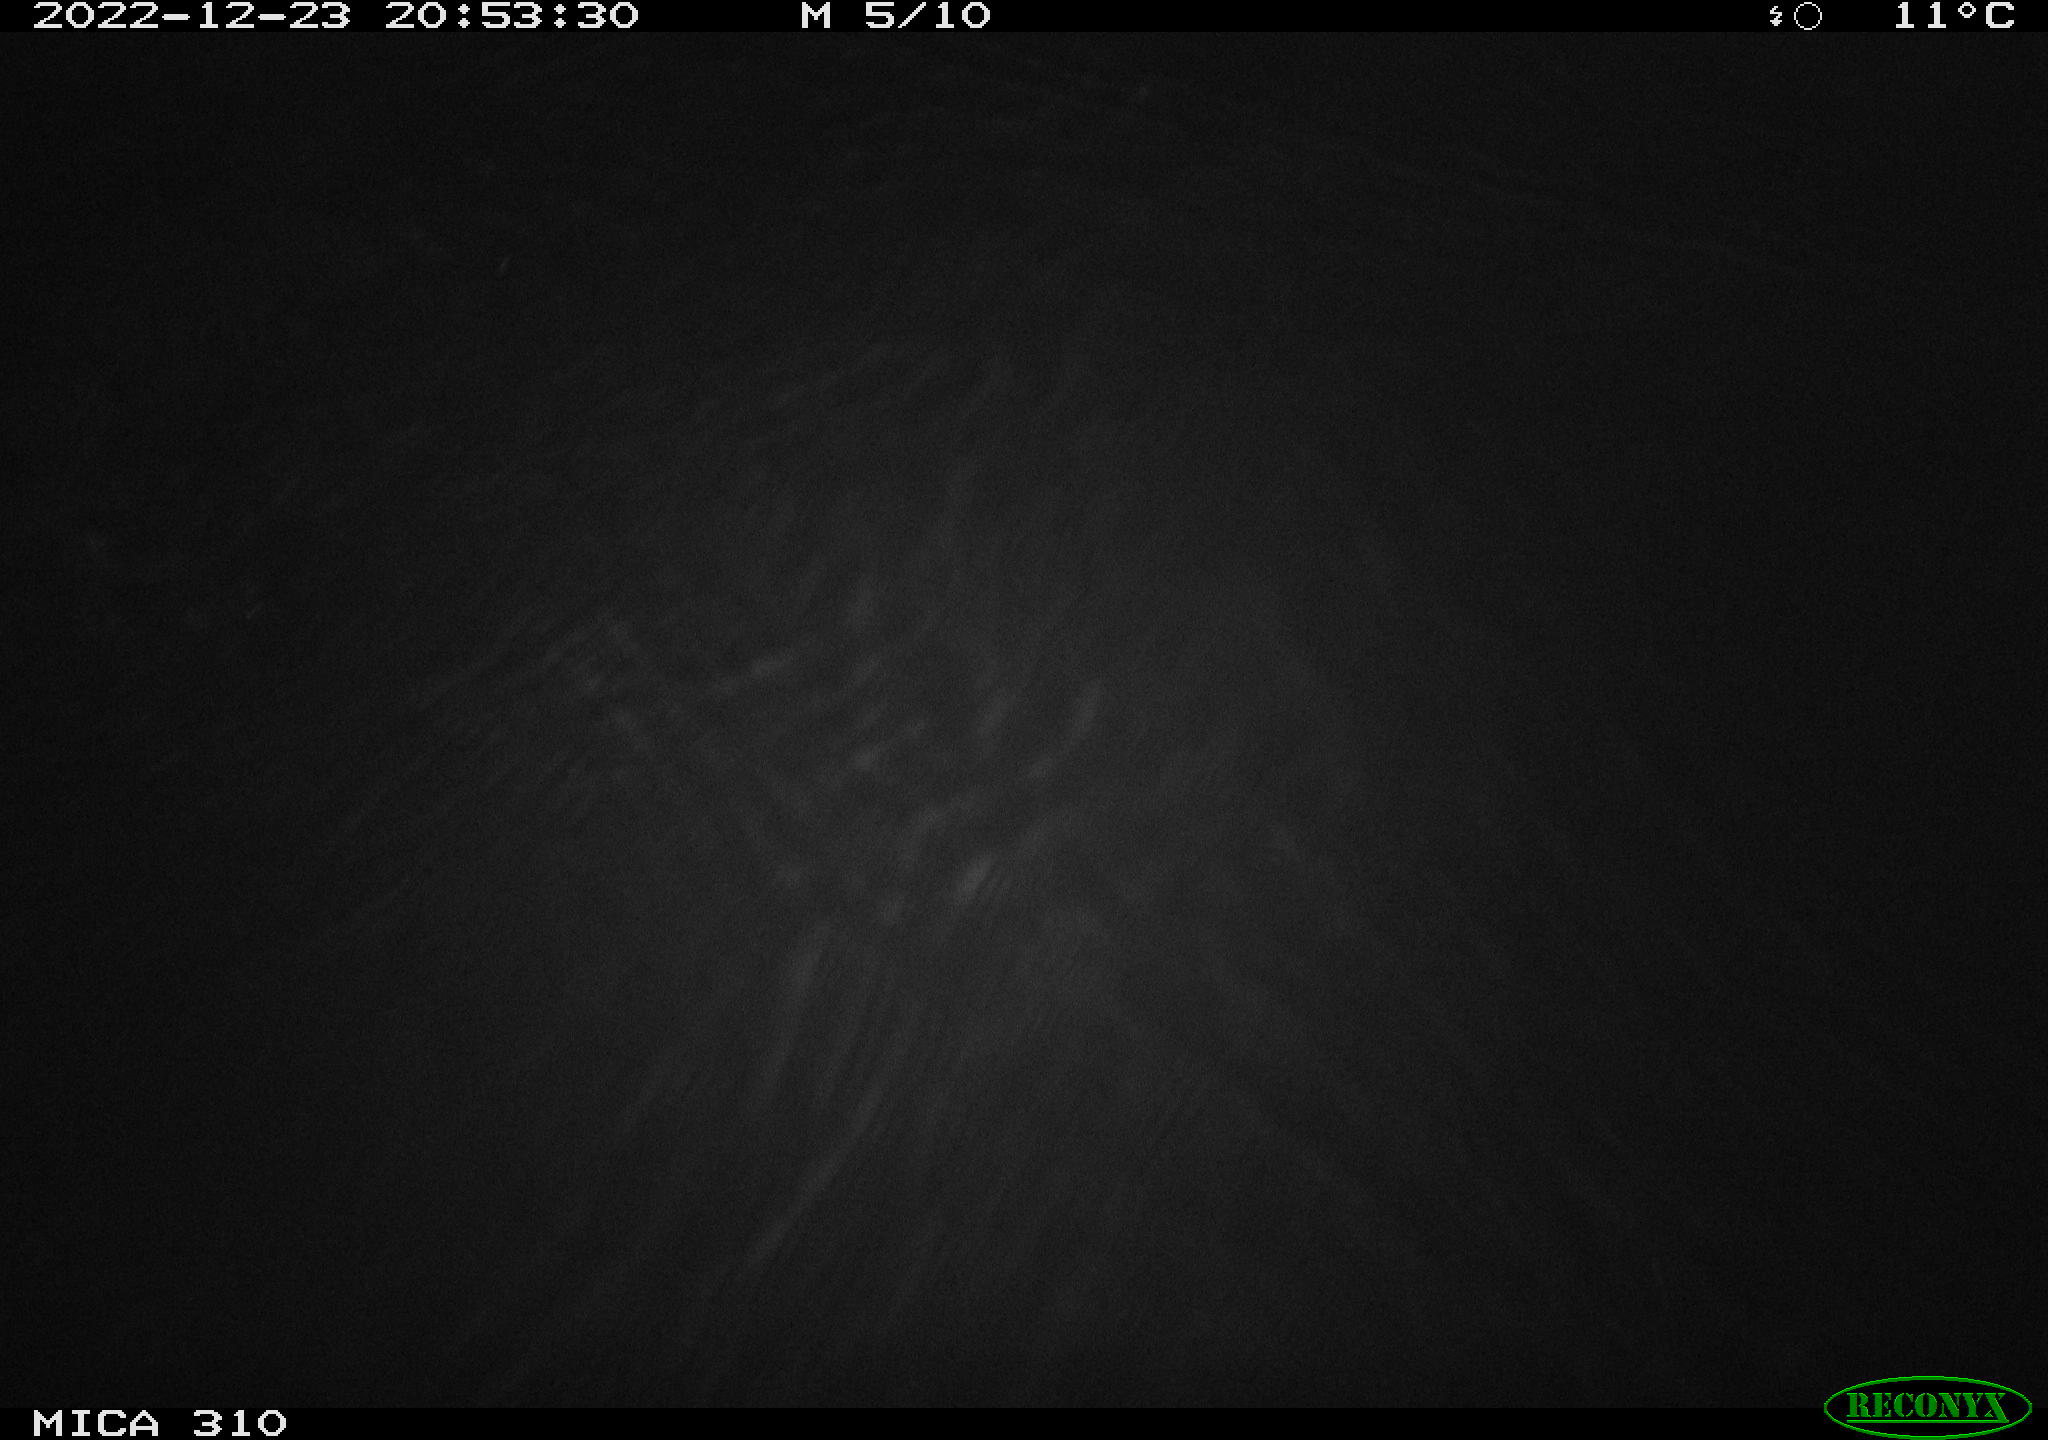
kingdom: Animalia
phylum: Chordata
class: Mammalia
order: Rodentia
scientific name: Rodentia
